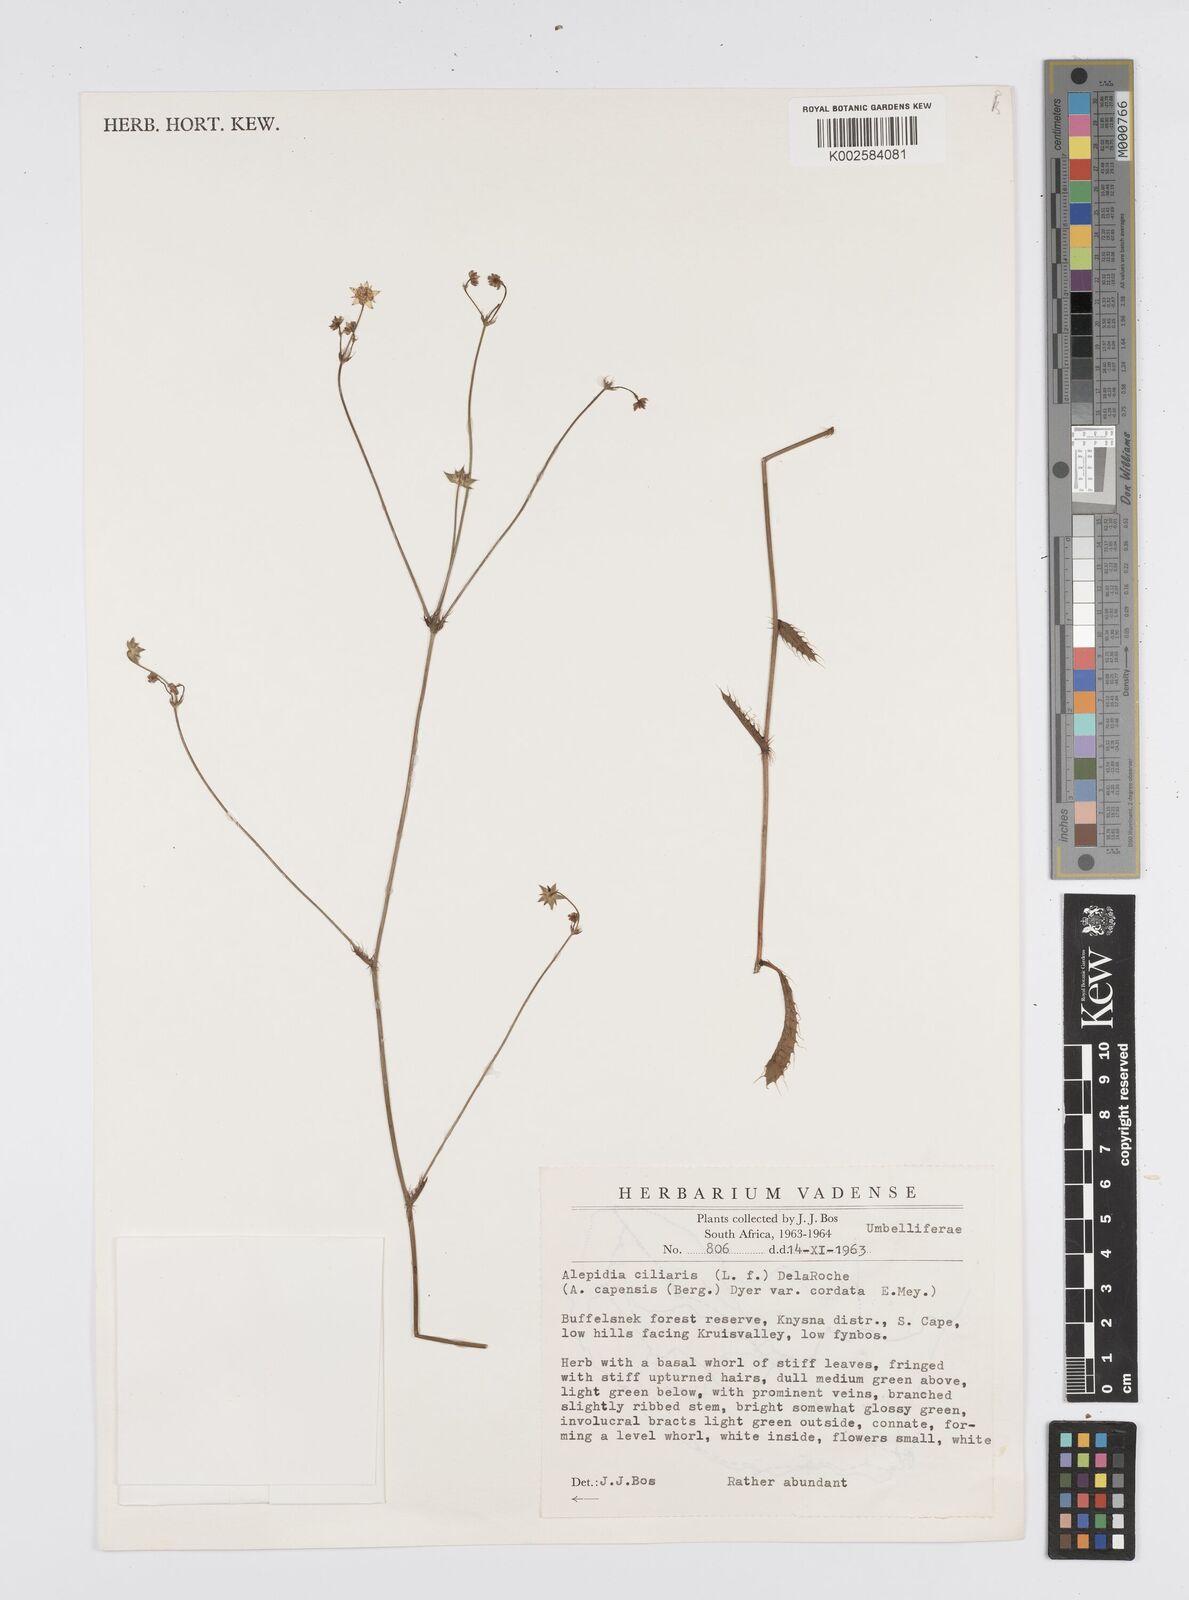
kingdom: Plantae
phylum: Tracheophyta
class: Magnoliopsida
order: Apiales
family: Apiaceae
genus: Alepidea
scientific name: Alepidea capensis
